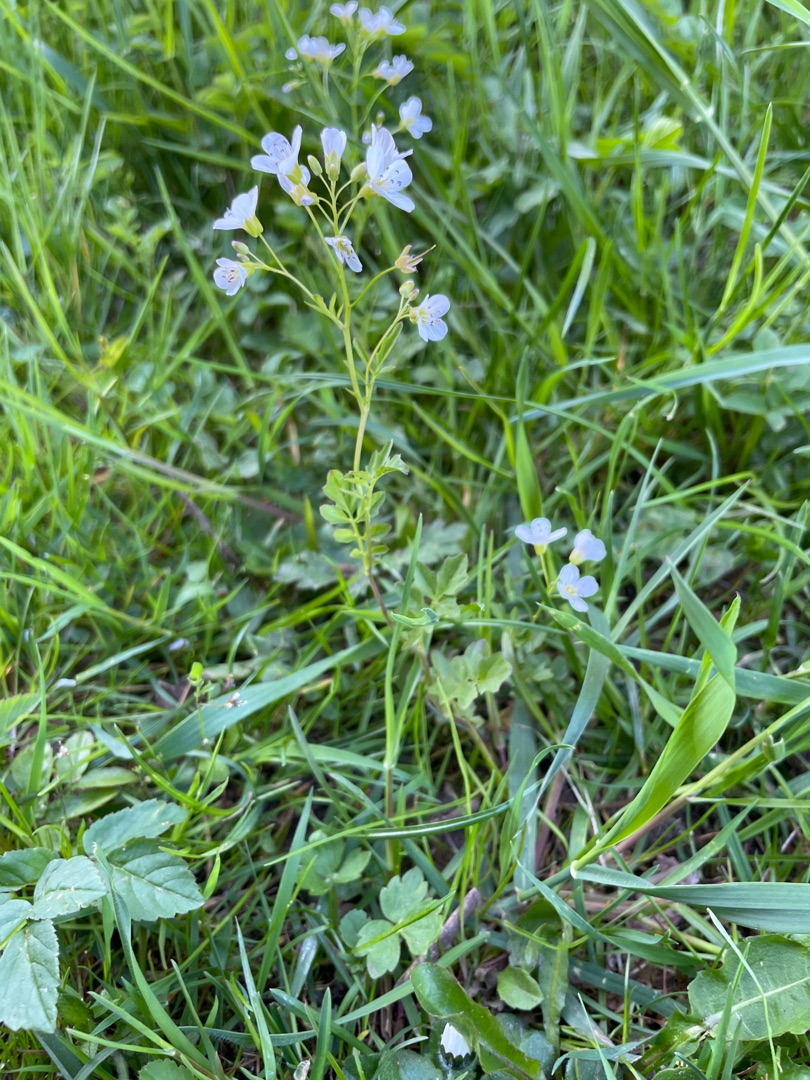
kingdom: Plantae
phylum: Tracheophyta
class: Magnoliopsida
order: Brassicales
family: Brassicaceae
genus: Cardamine
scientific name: Cardamine amara
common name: Vandkarse
